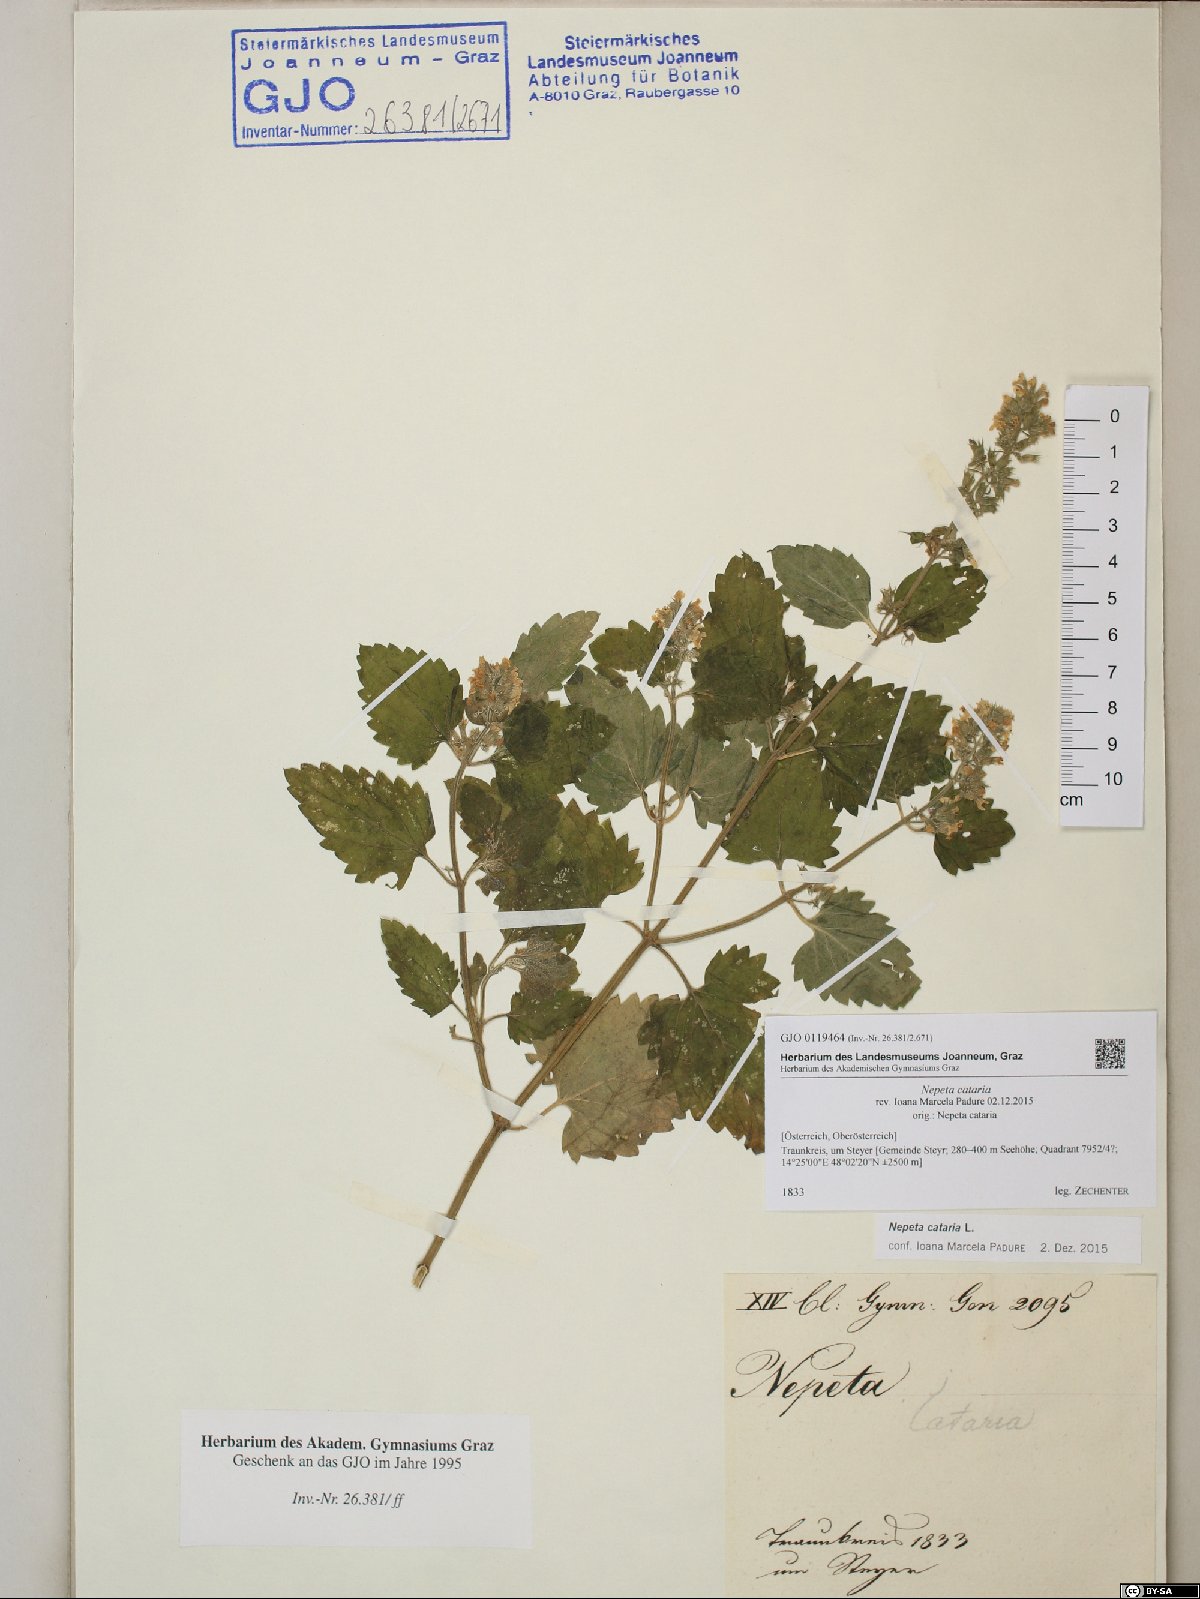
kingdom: Plantae
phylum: Tracheophyta
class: Magnoliopsida
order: Lamiales
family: Lamiaceae
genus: Nepeta
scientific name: Nepeta cataria
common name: Catnip
